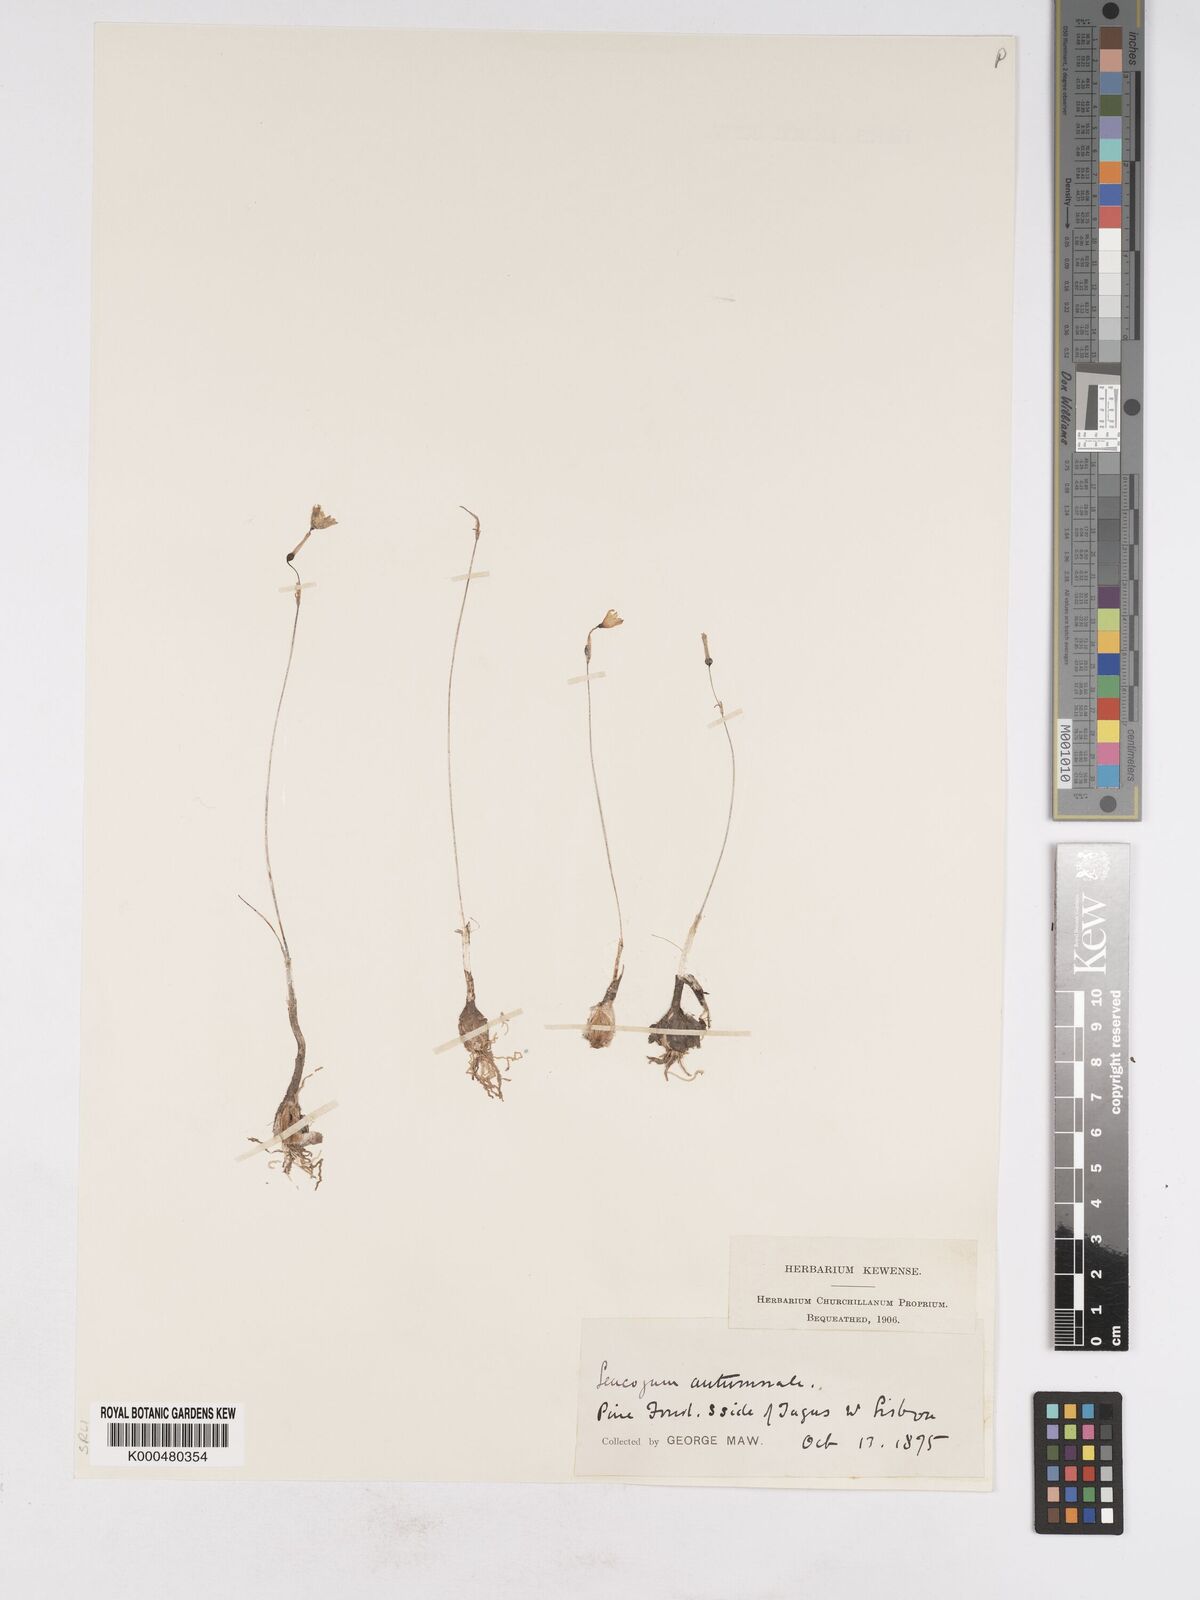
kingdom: Plantae
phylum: Tracheophyta
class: Liliopsida
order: Asparagales
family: Amaryllidaceae
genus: Acis
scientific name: Acis autumnalis
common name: Autumn snowflake
